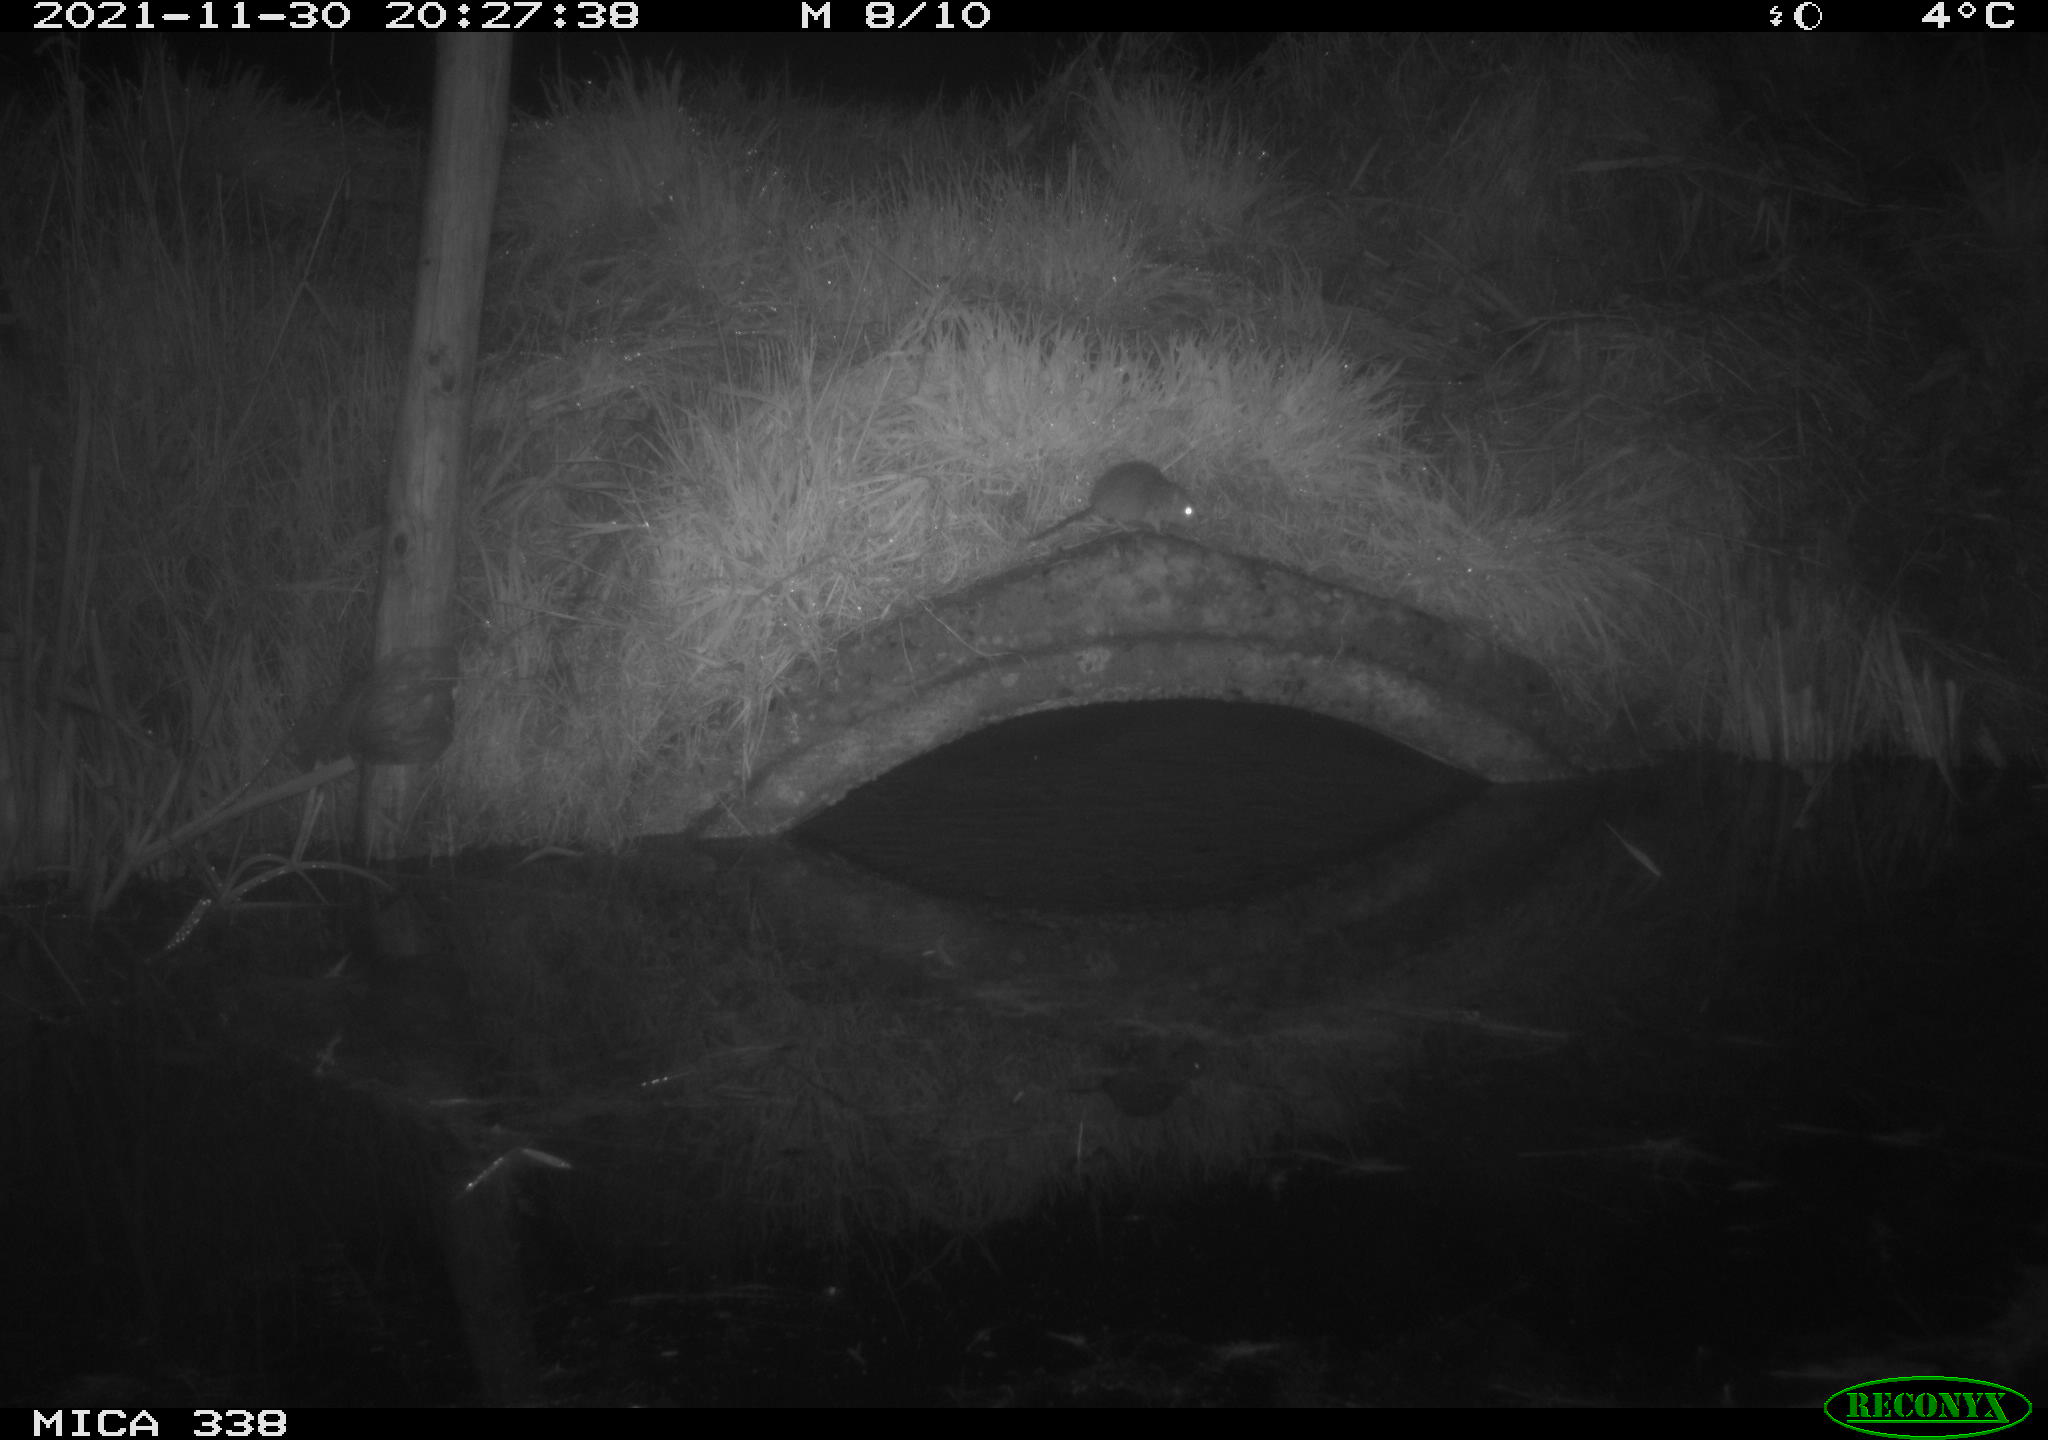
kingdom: Animalia
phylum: Chordata
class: Mammalia
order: Rodentia
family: Muridae
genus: Rattus
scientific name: Rattus norvegicus
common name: Brown rat
